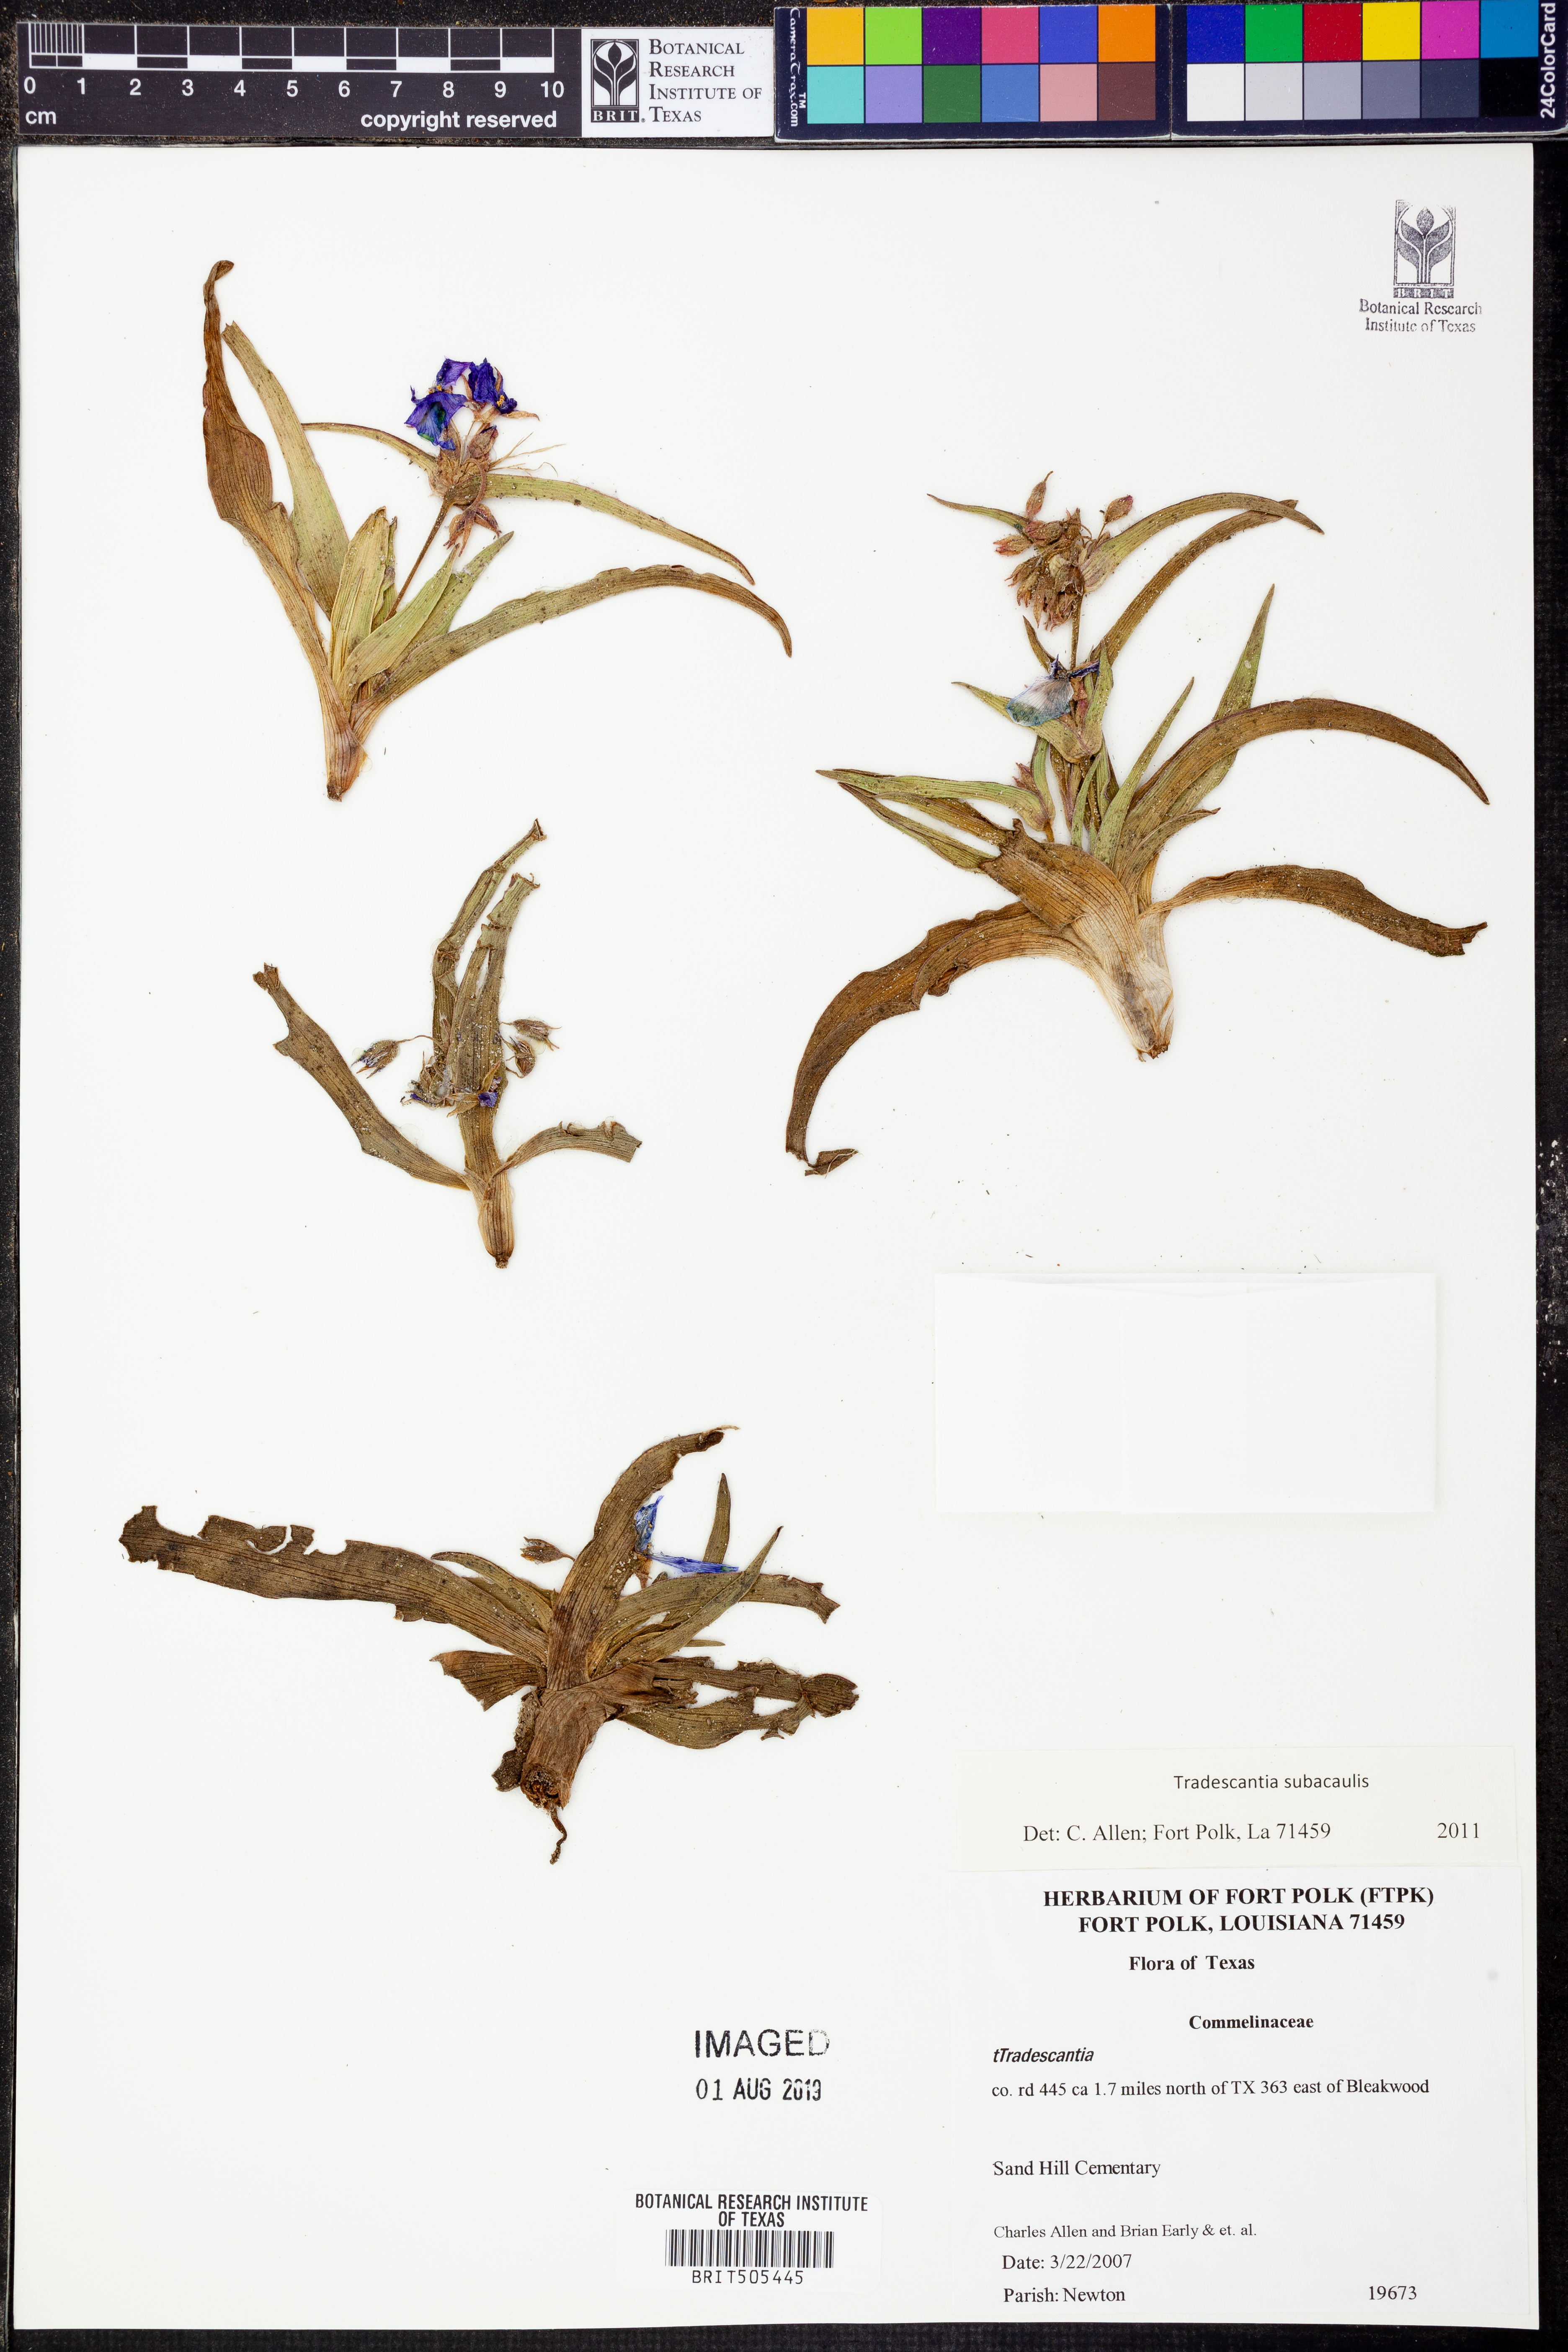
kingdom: Plantae
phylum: Tracheophyta
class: Liliopsida
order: Commelinales
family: Commelinaceae
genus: Tradescantia
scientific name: Tradescantia subacaulis
